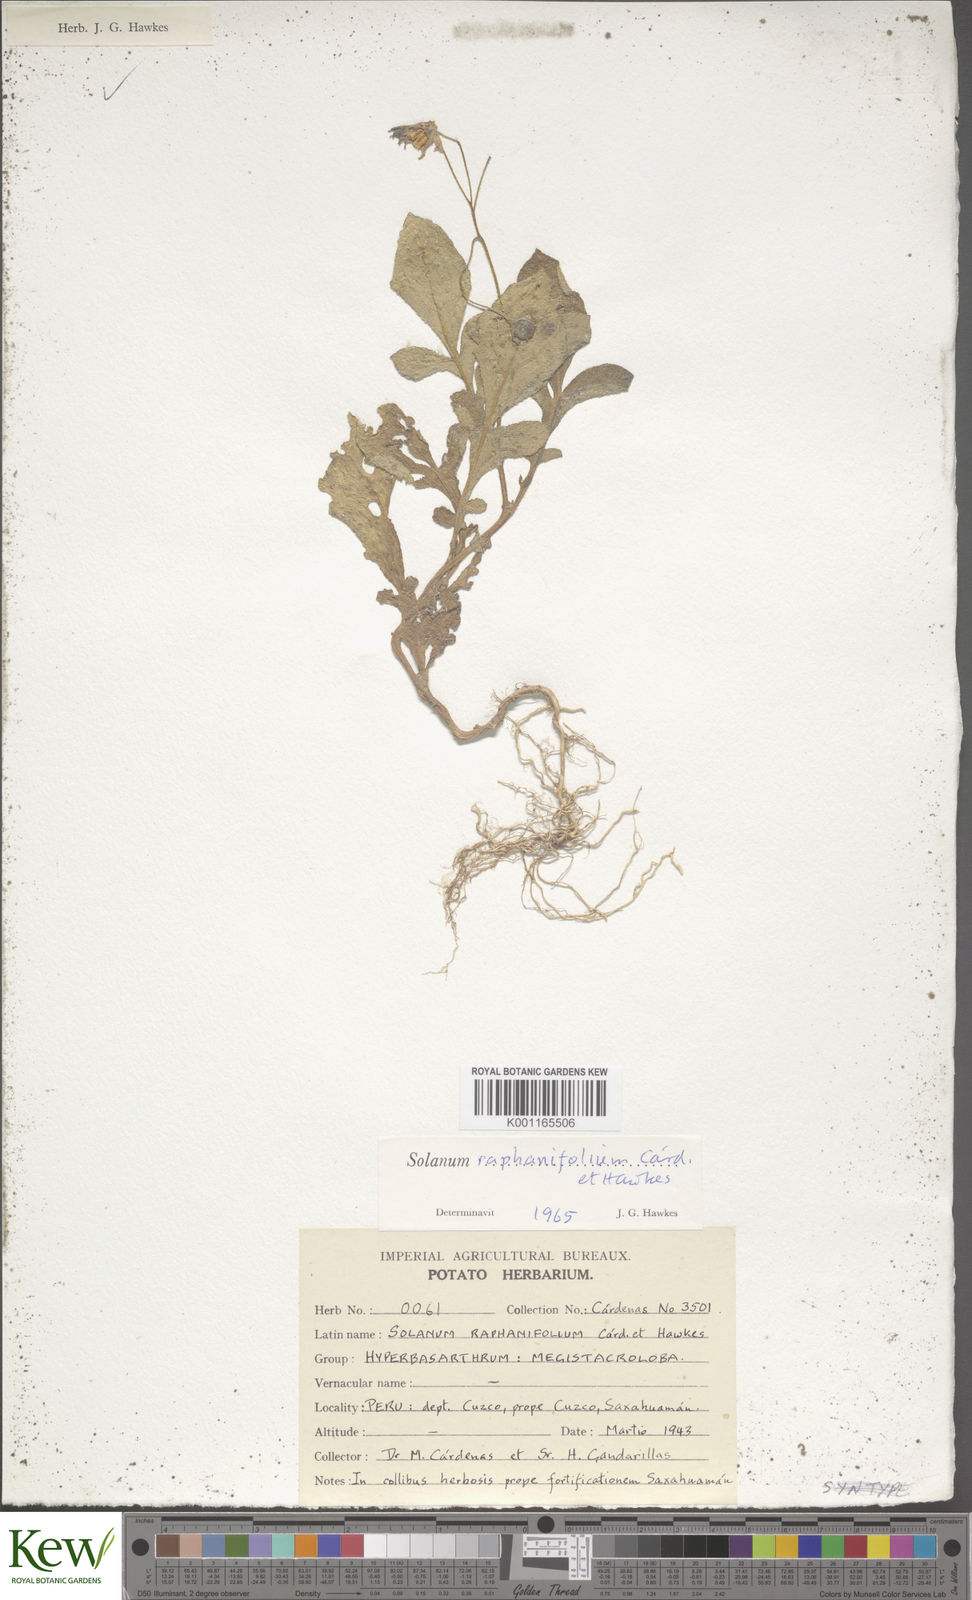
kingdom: Plantae
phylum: Tracheophyta
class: Magnoliopsida
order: Solanales
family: Solanaceae
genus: Solanum
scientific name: Solanum raphanifolium
